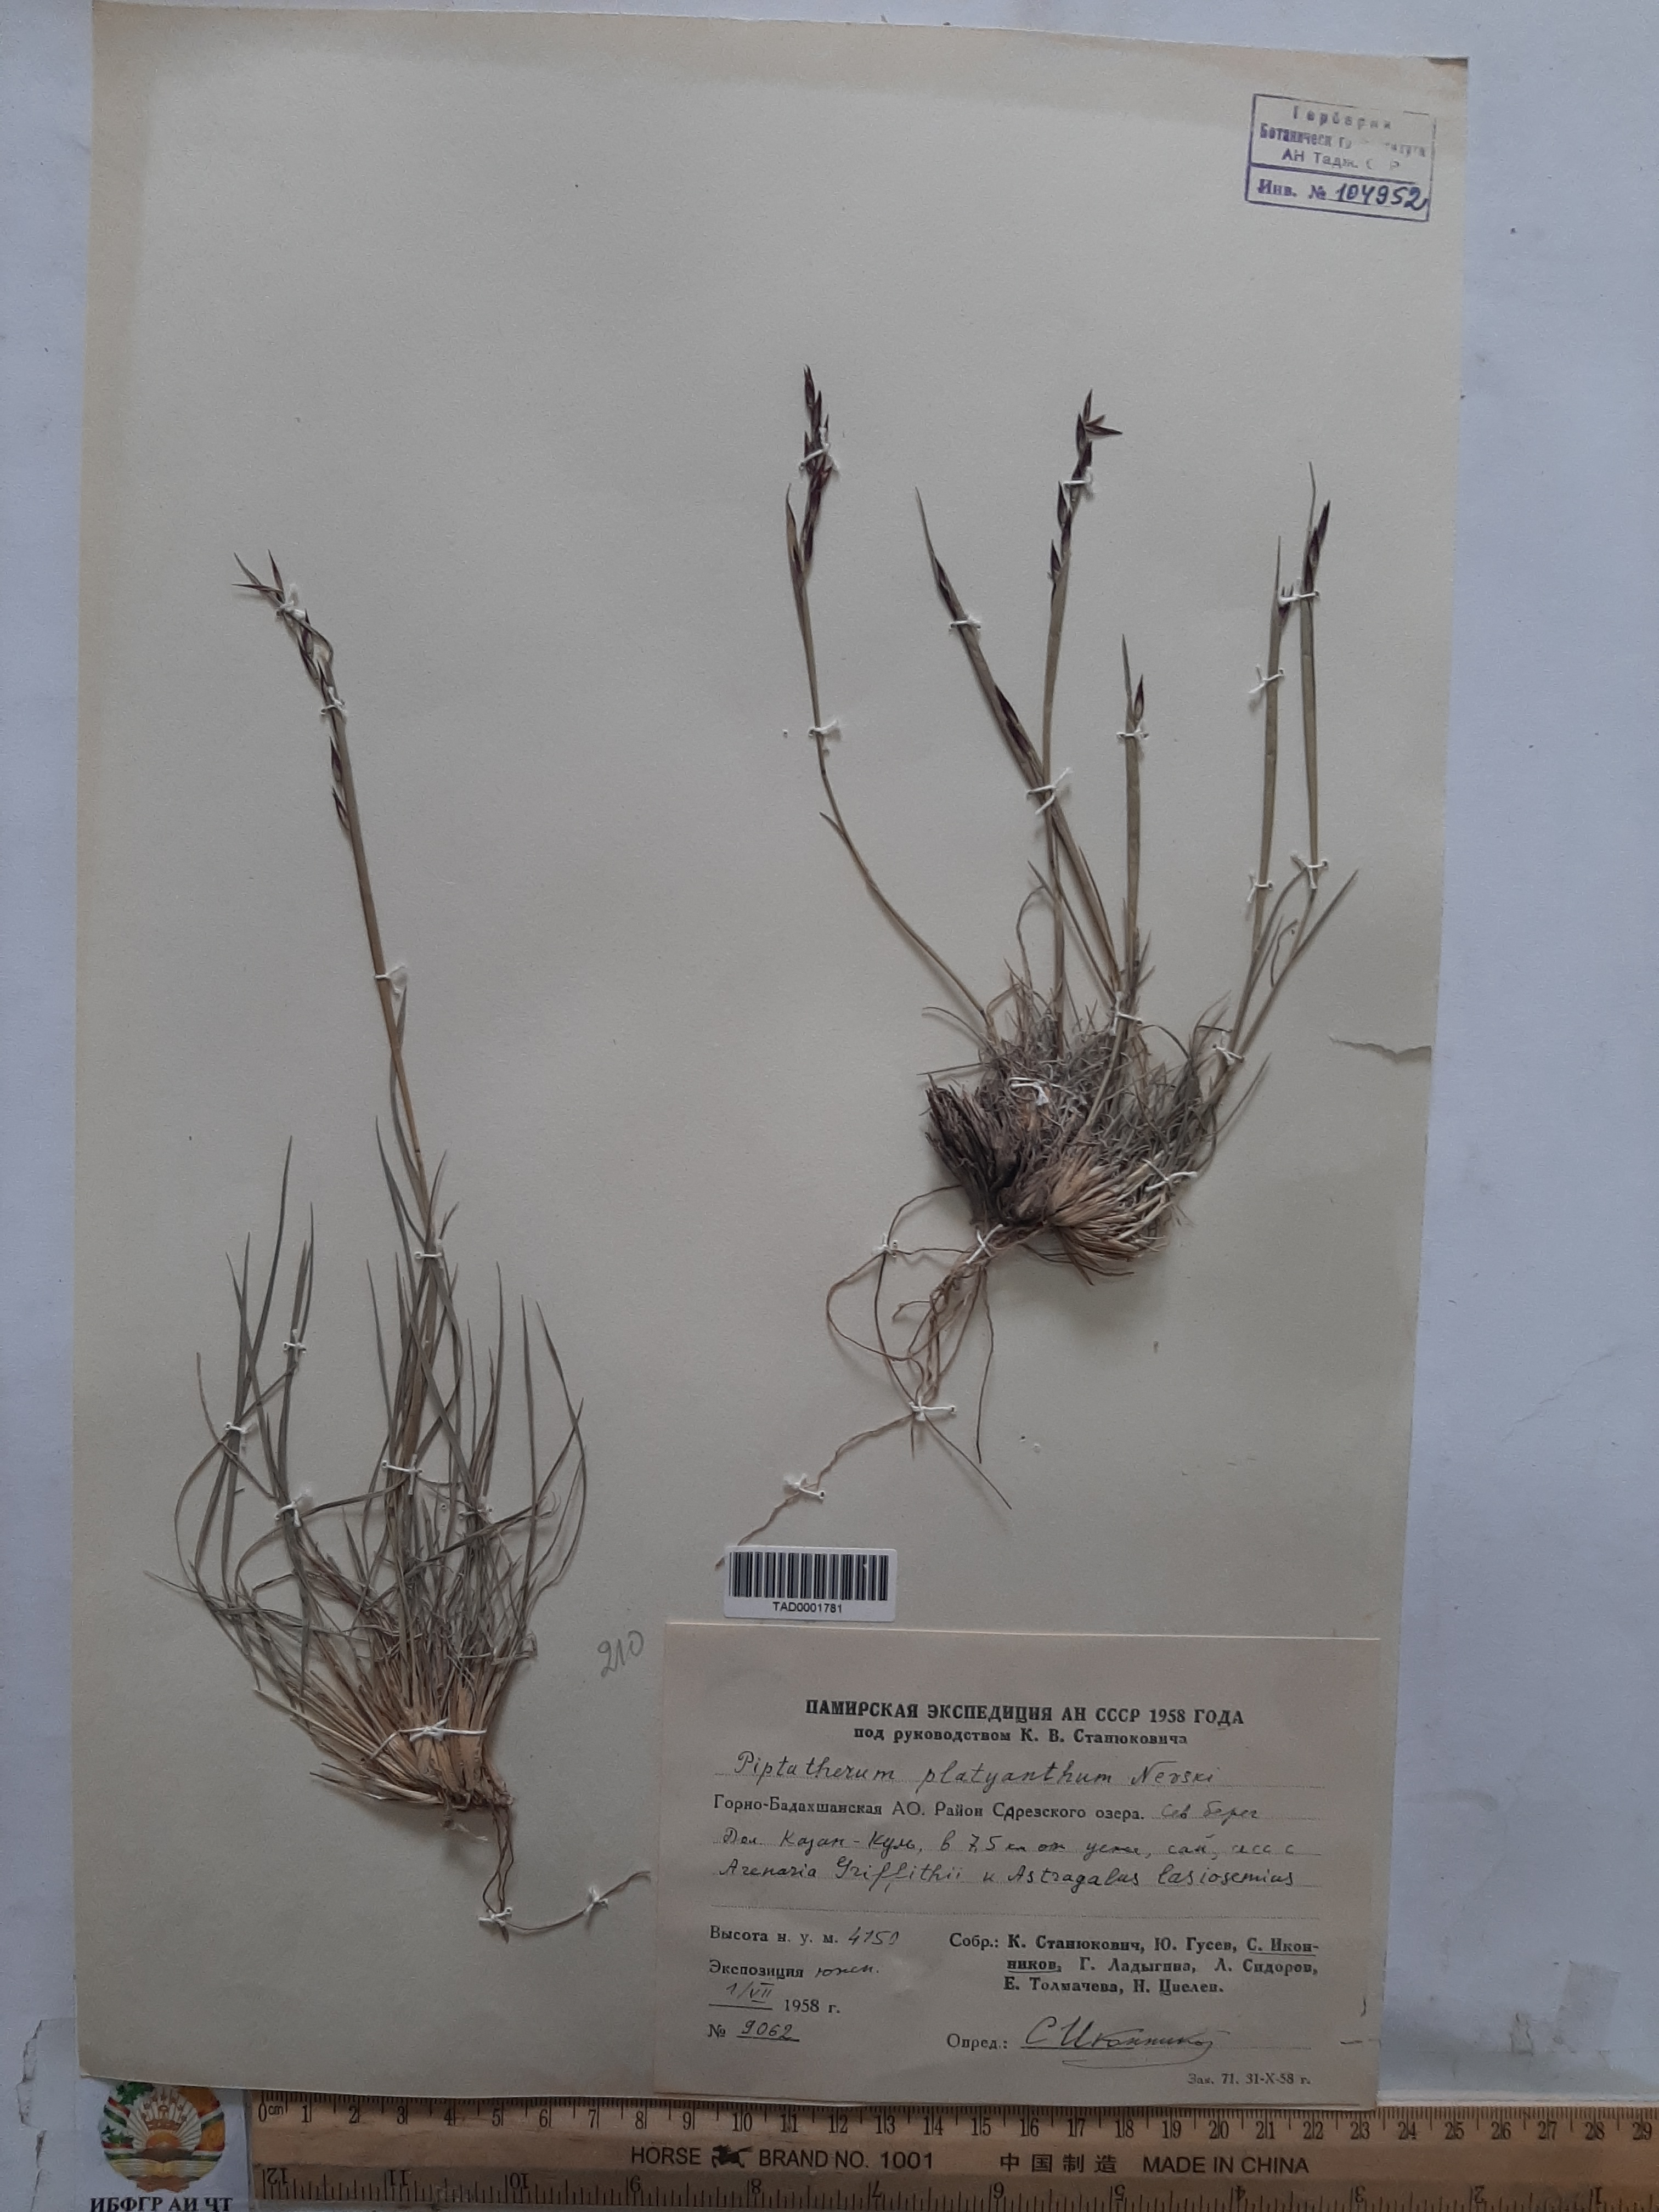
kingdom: Plantae
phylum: Tracheophyta
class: Liliopsida
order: Poales
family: Poaceae
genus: Piptatherum
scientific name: Piptatherum platyanthum
